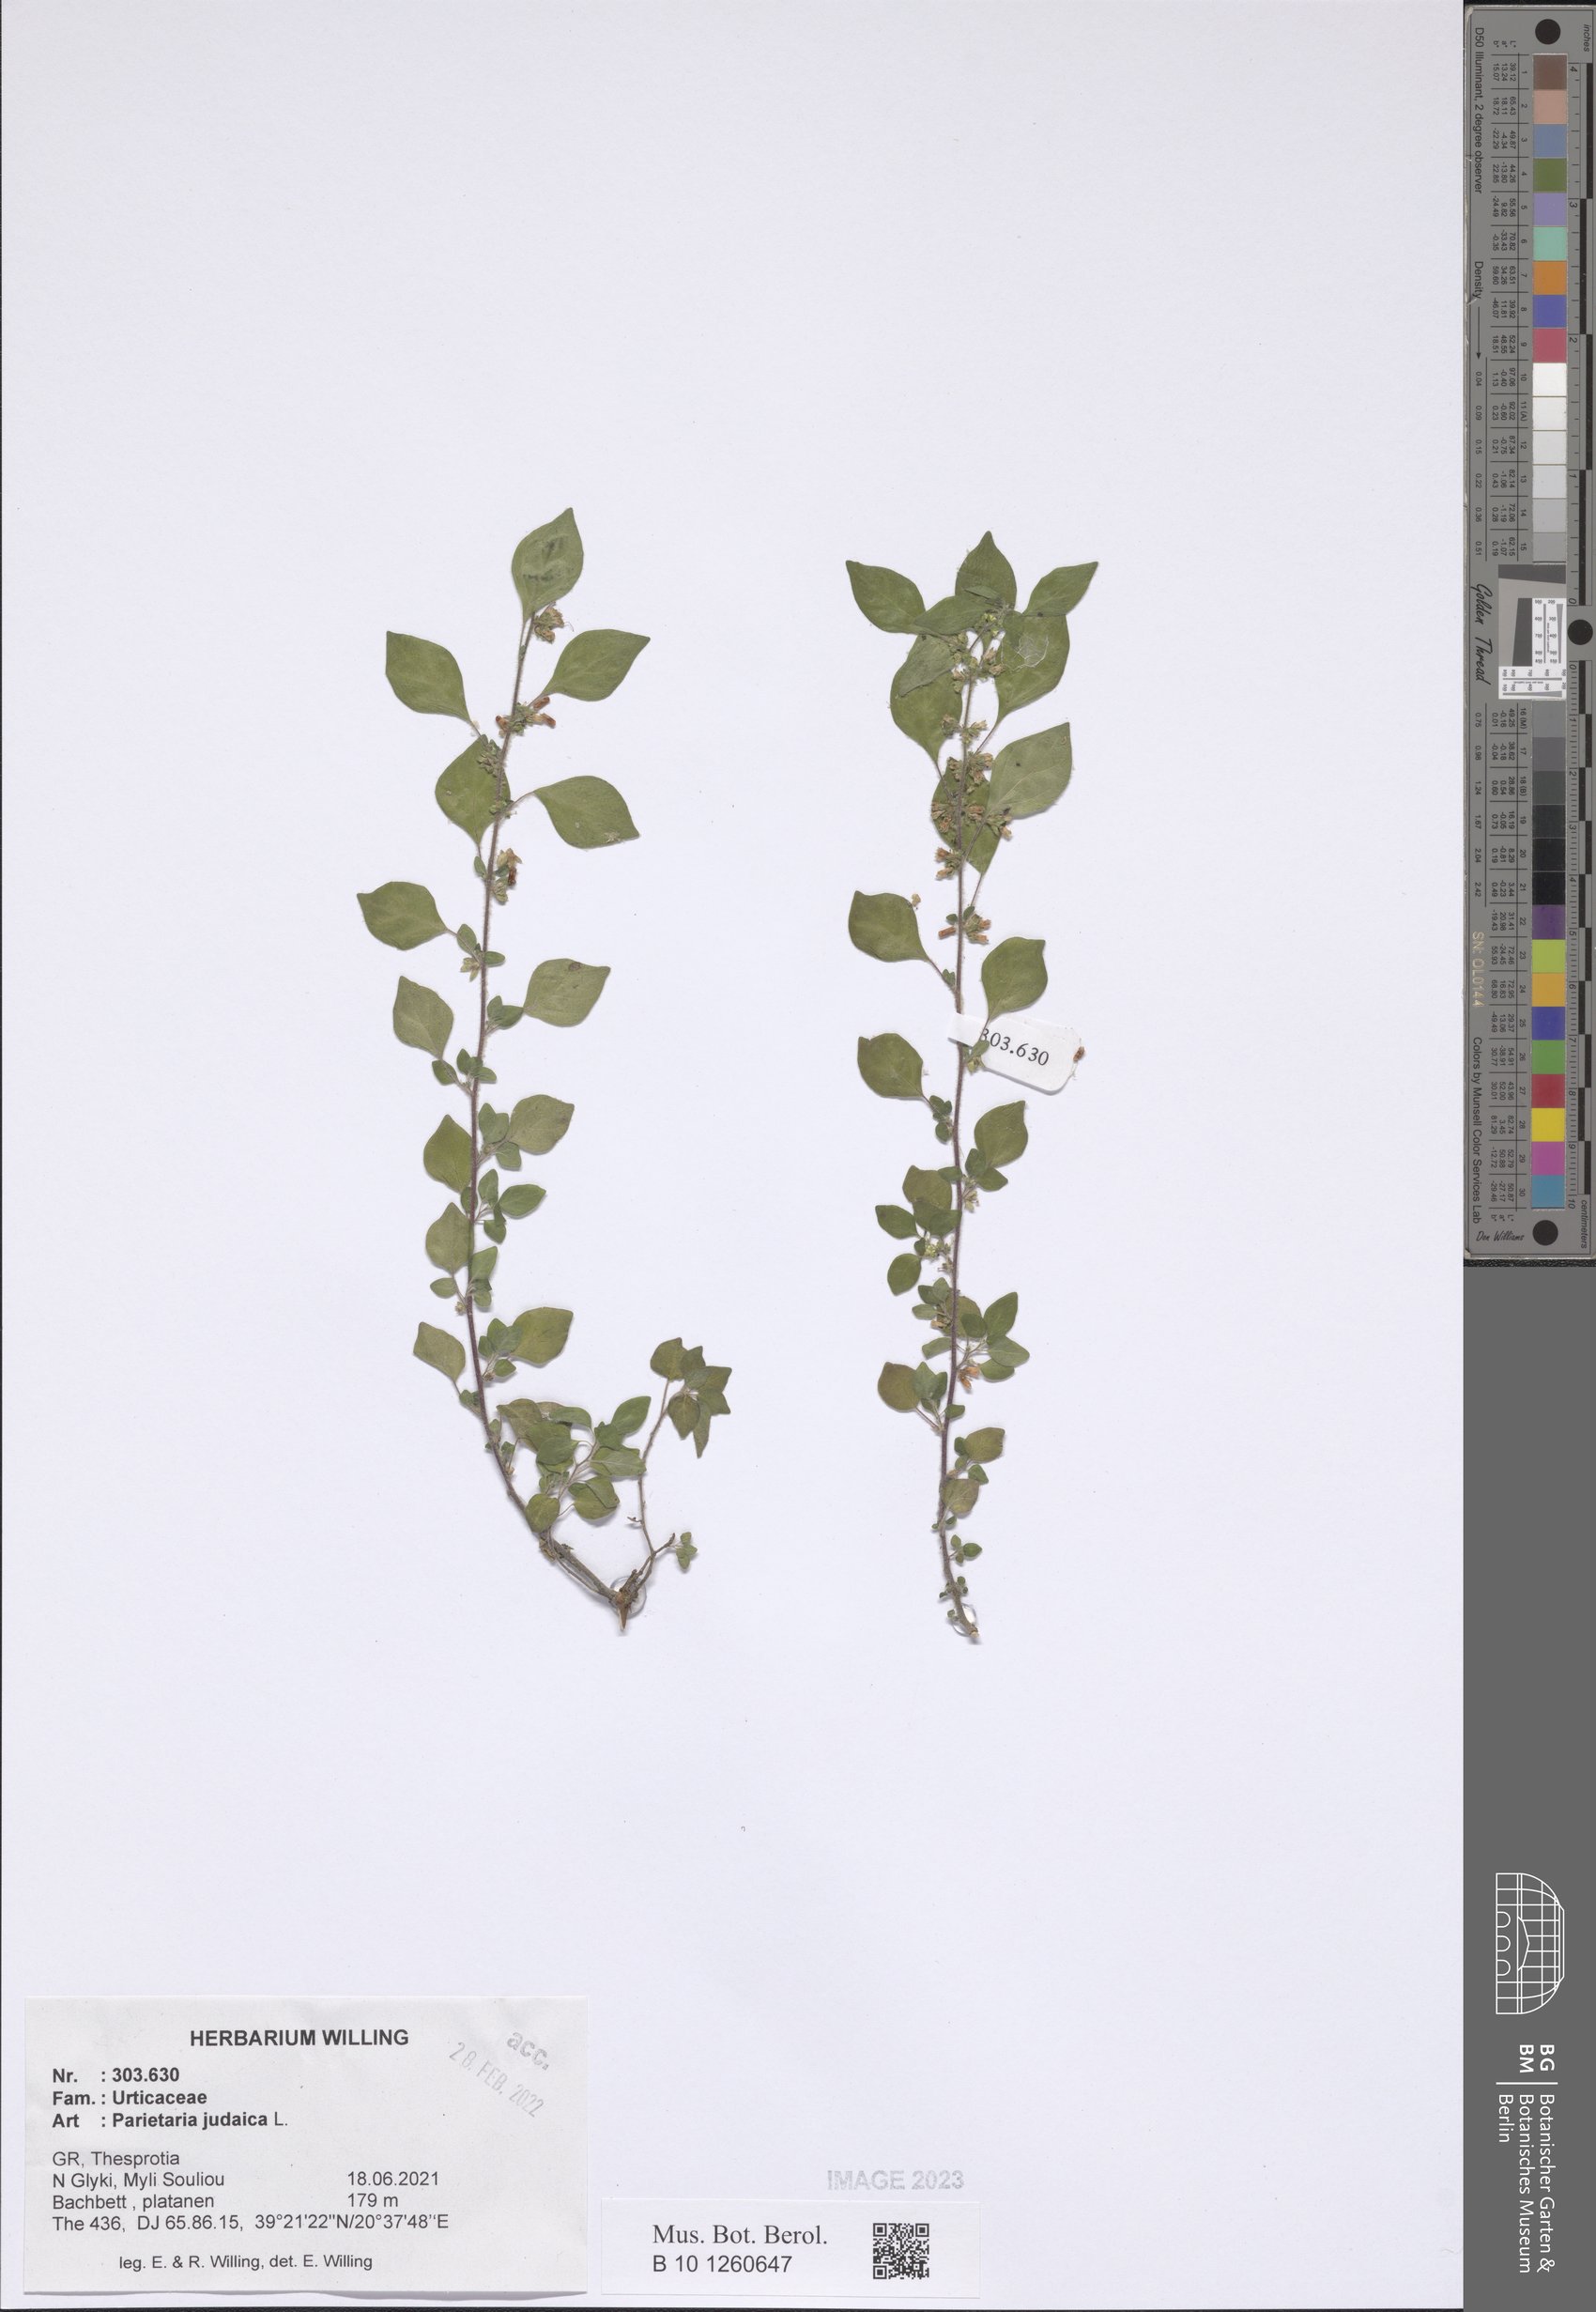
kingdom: Plantae
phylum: Tracheophyta
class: Magnoliopsida
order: Rosales
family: Urticaceae
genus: Parietaria
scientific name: Parietaria judaica
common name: Pellitory-of-the-wall
